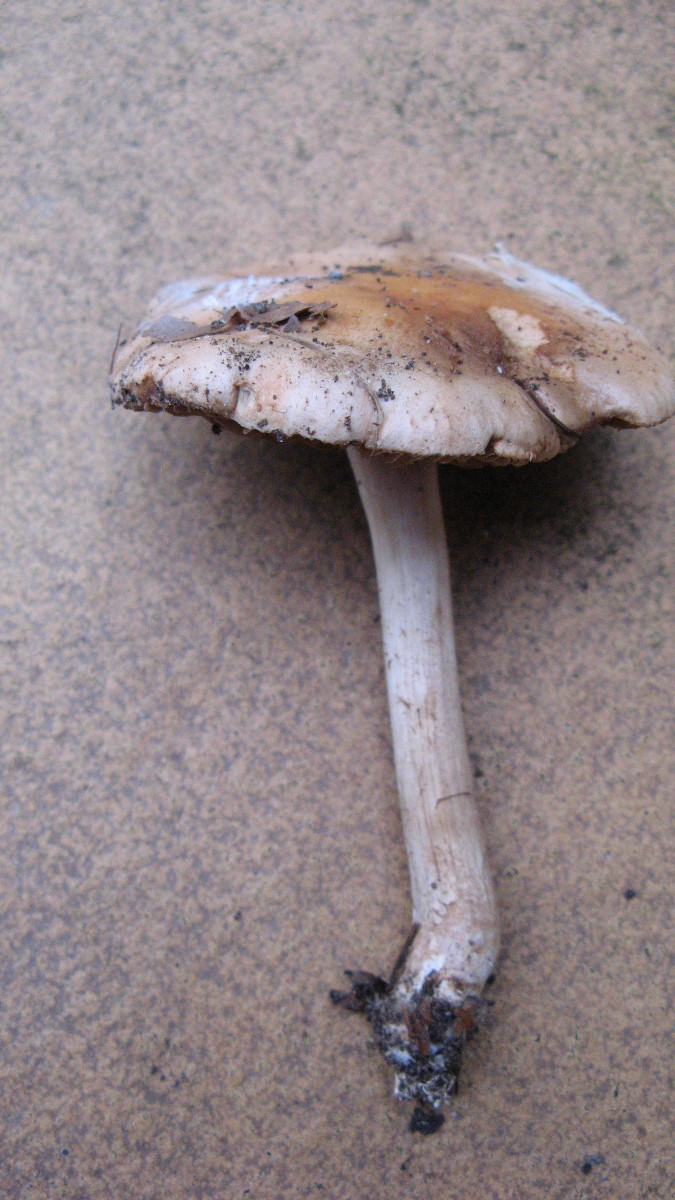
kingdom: Fungi
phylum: Basidiomycota
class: Agaricomycetes
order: Agaricales
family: Hymenogastraceae
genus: Hebeloma
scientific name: Hebeloma
